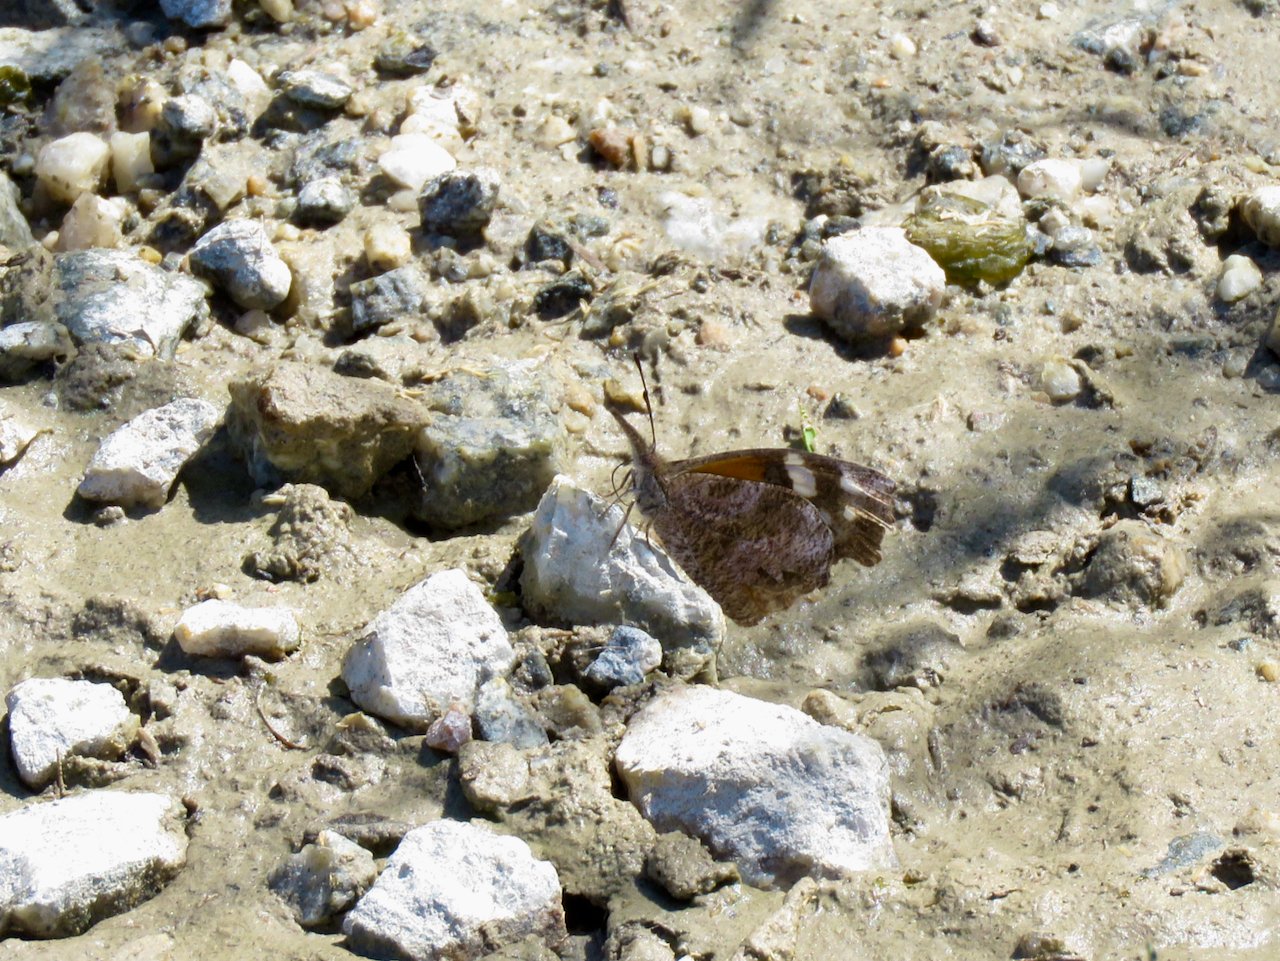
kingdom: Animalia
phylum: Arthropoda
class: Insecta
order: Lepidoptera
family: Nymphalidae
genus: Libytheana
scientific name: Libytheana carinenta
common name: American Snout
